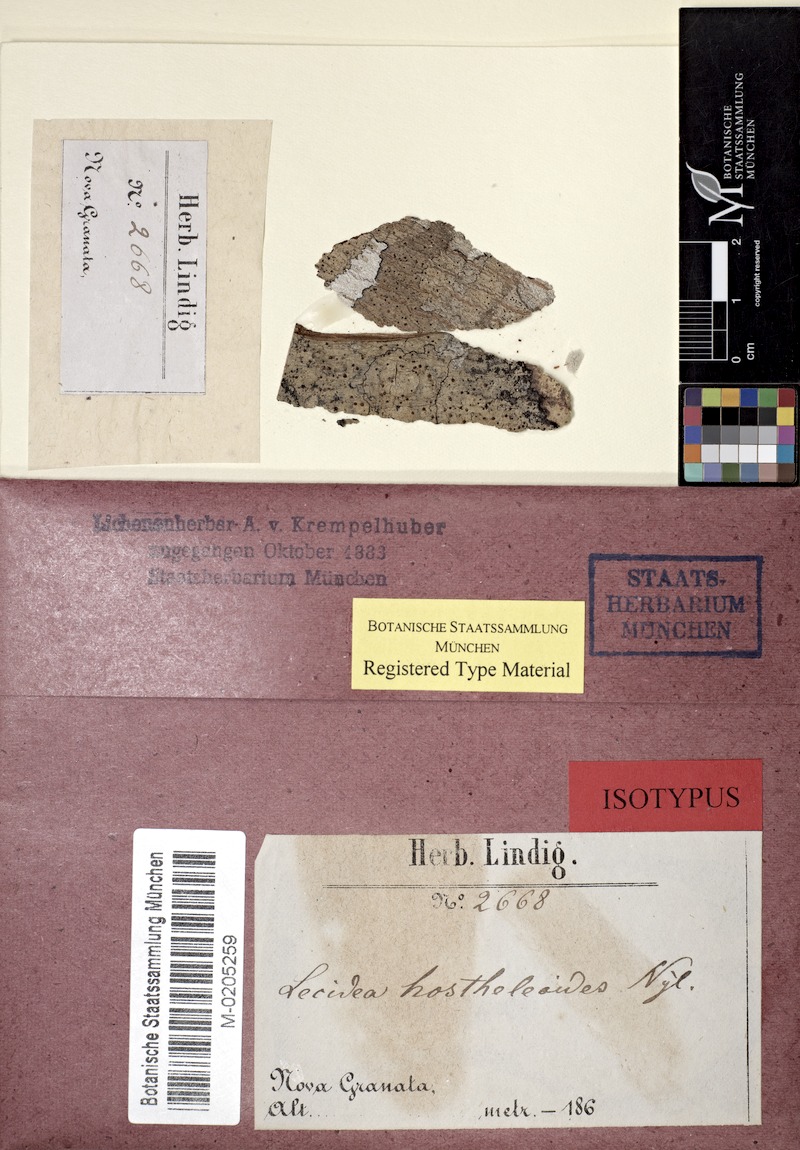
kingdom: Fungi
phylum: Ascomycota
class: Lecanoromycetes
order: Lecanorales
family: Ramalinaceae
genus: Bacidia
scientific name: Bacidia hostheleoides
